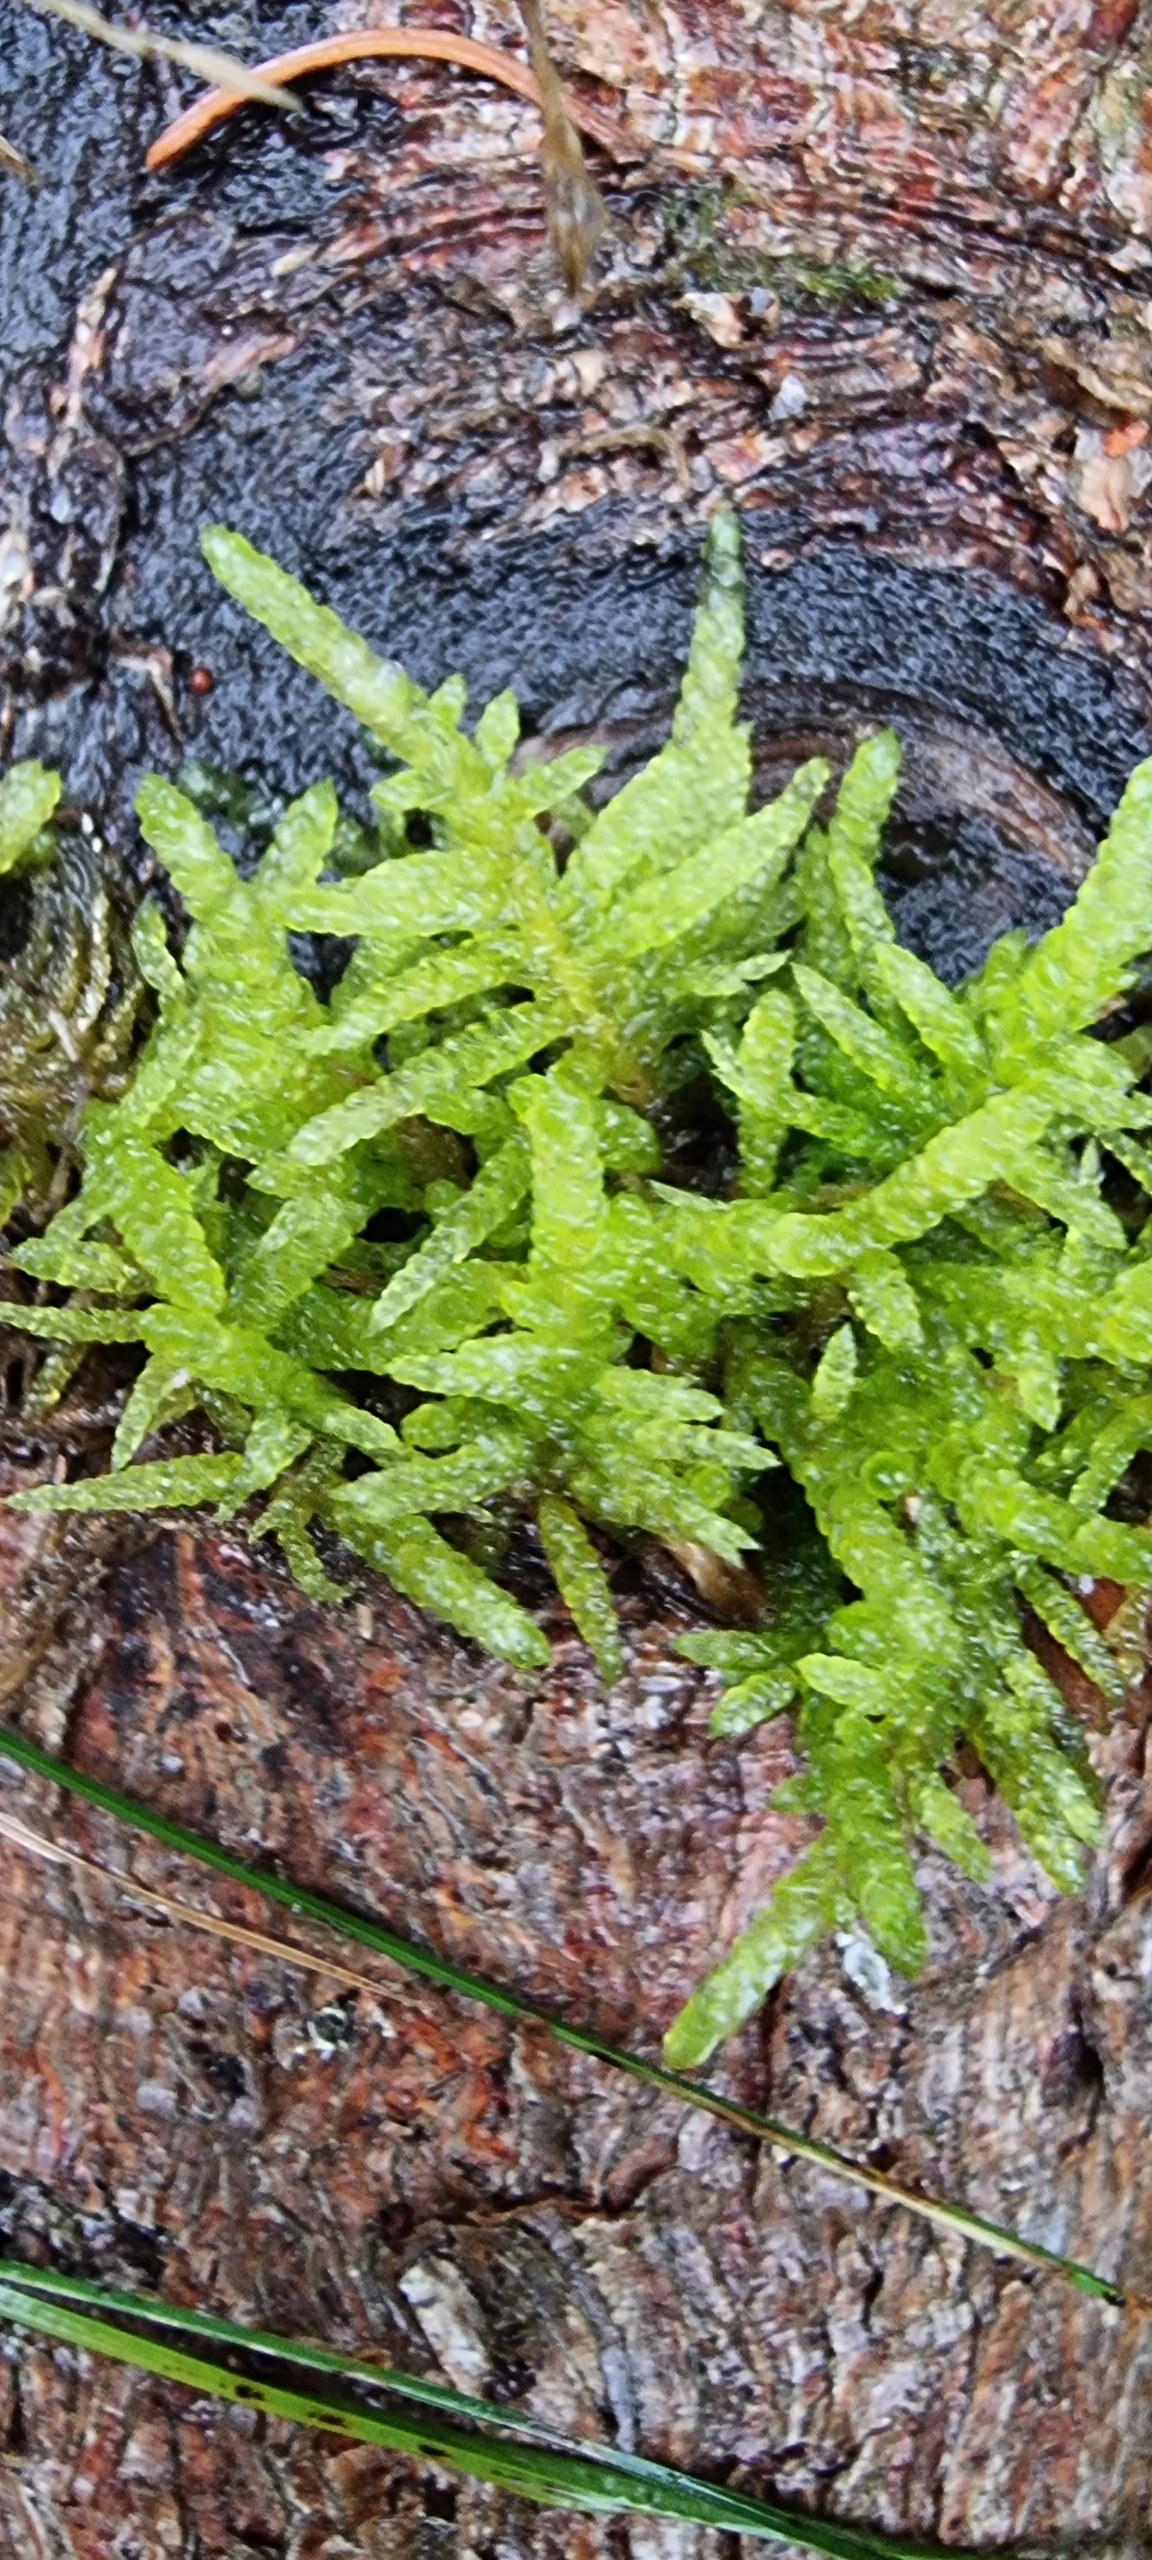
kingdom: Plantae
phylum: Bryophyta
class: Bryopsida
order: Hypnales
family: Brachytheciaceae
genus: Pseudoscleropodium
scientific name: Pseudoscleropodium purum
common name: Hulbladet fedtmos
